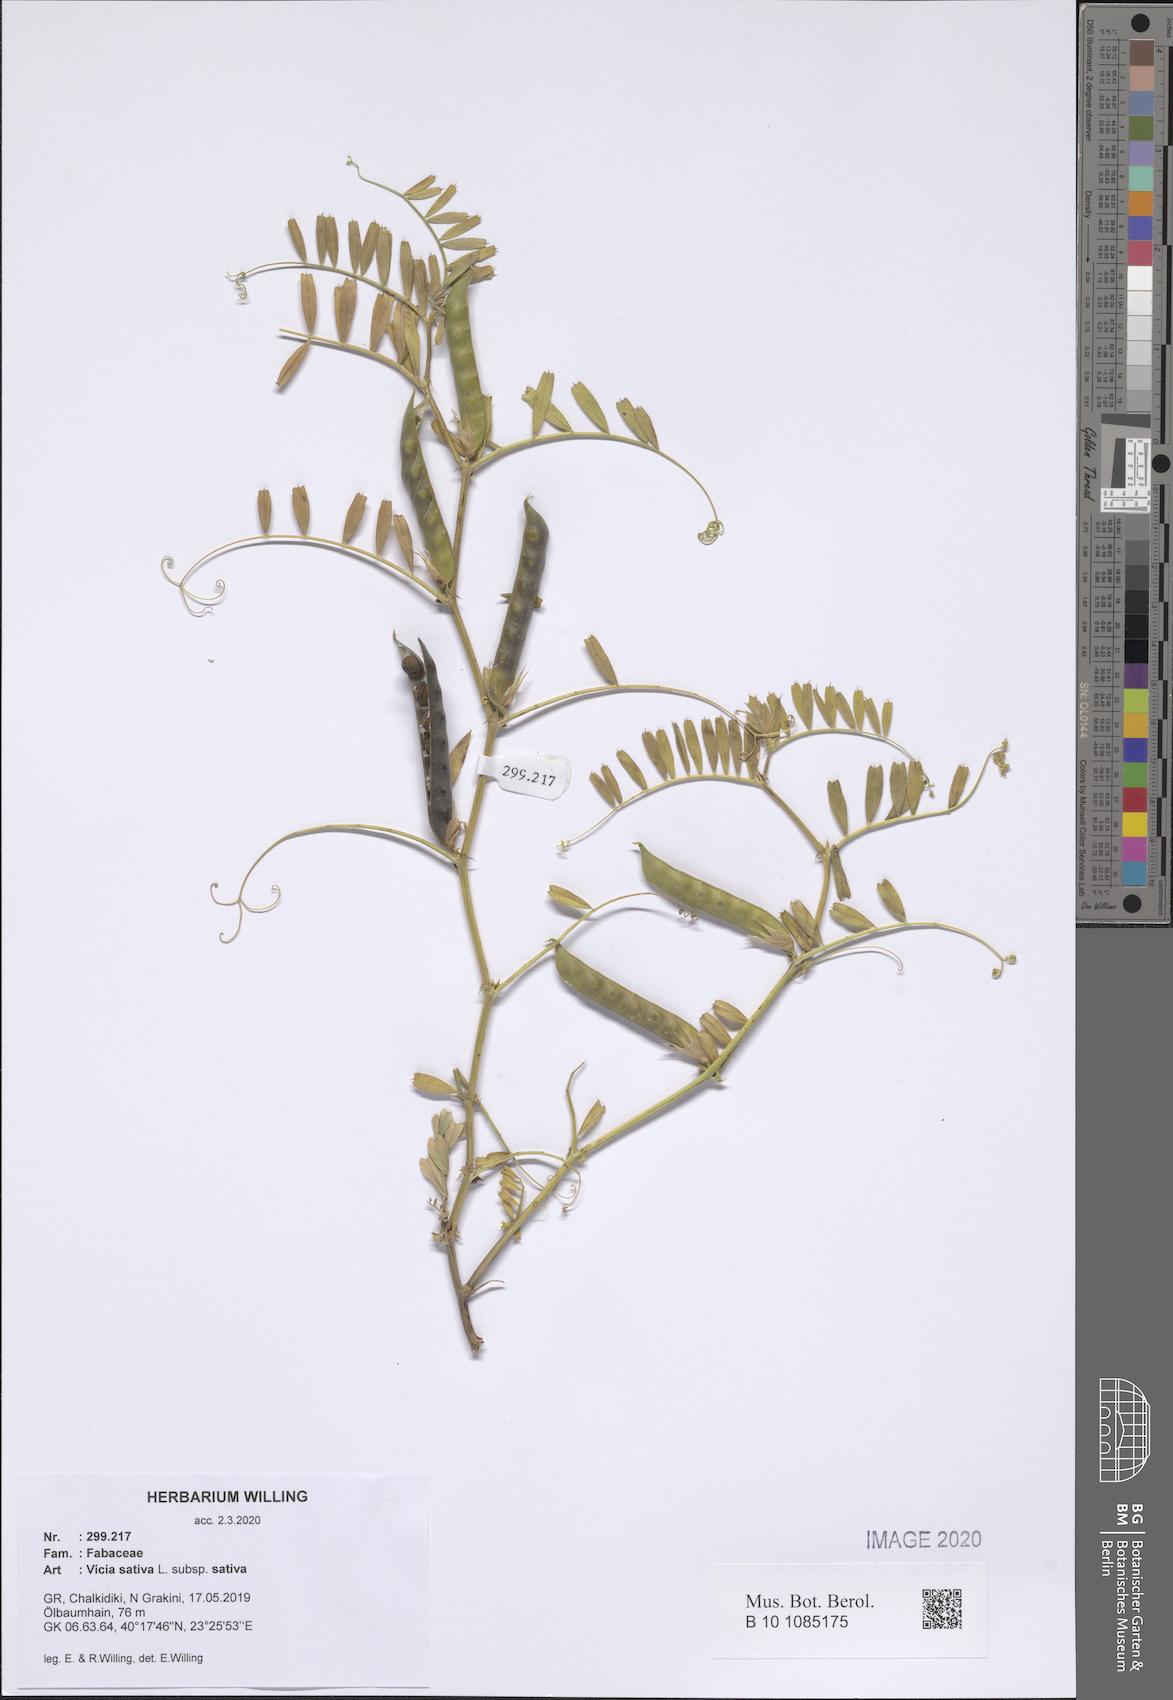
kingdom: Plantae
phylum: Tracheophyta
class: Magnoliopsida
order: Fabales
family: Fabaceae
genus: Vicia
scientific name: Vicia sativa
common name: Garden vetch
